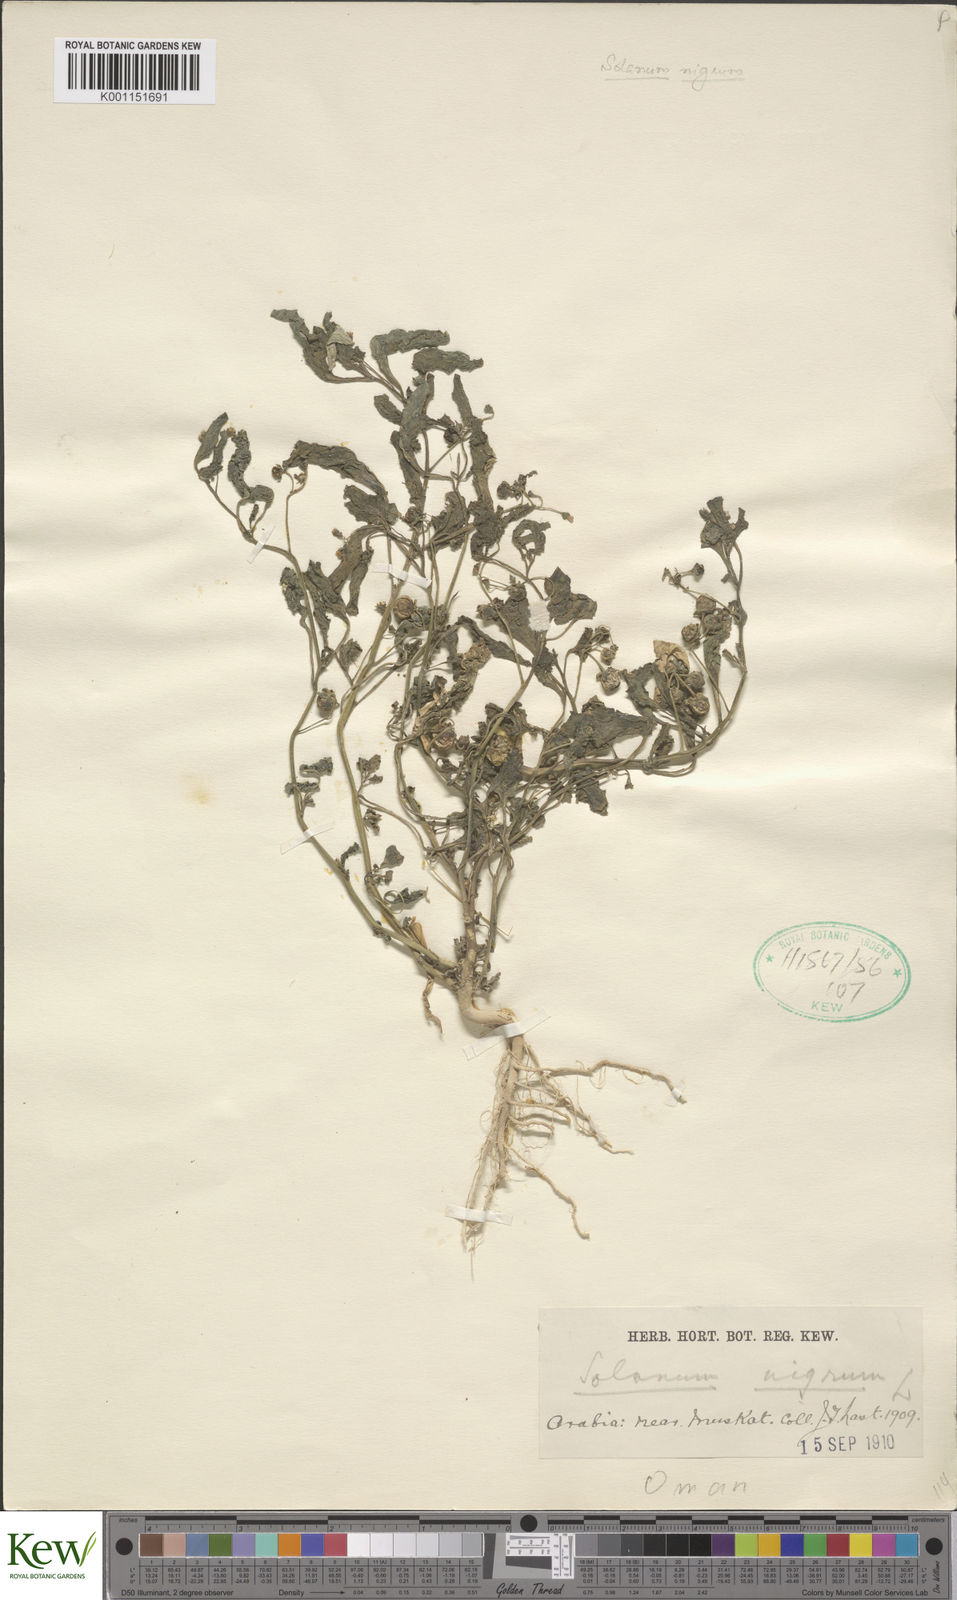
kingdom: Plantae
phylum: Tracheophyta
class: Magnoliopsida
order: Solanales
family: Solanaceae
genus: Solanum
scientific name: Solanum nigrum
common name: Black nightshade
